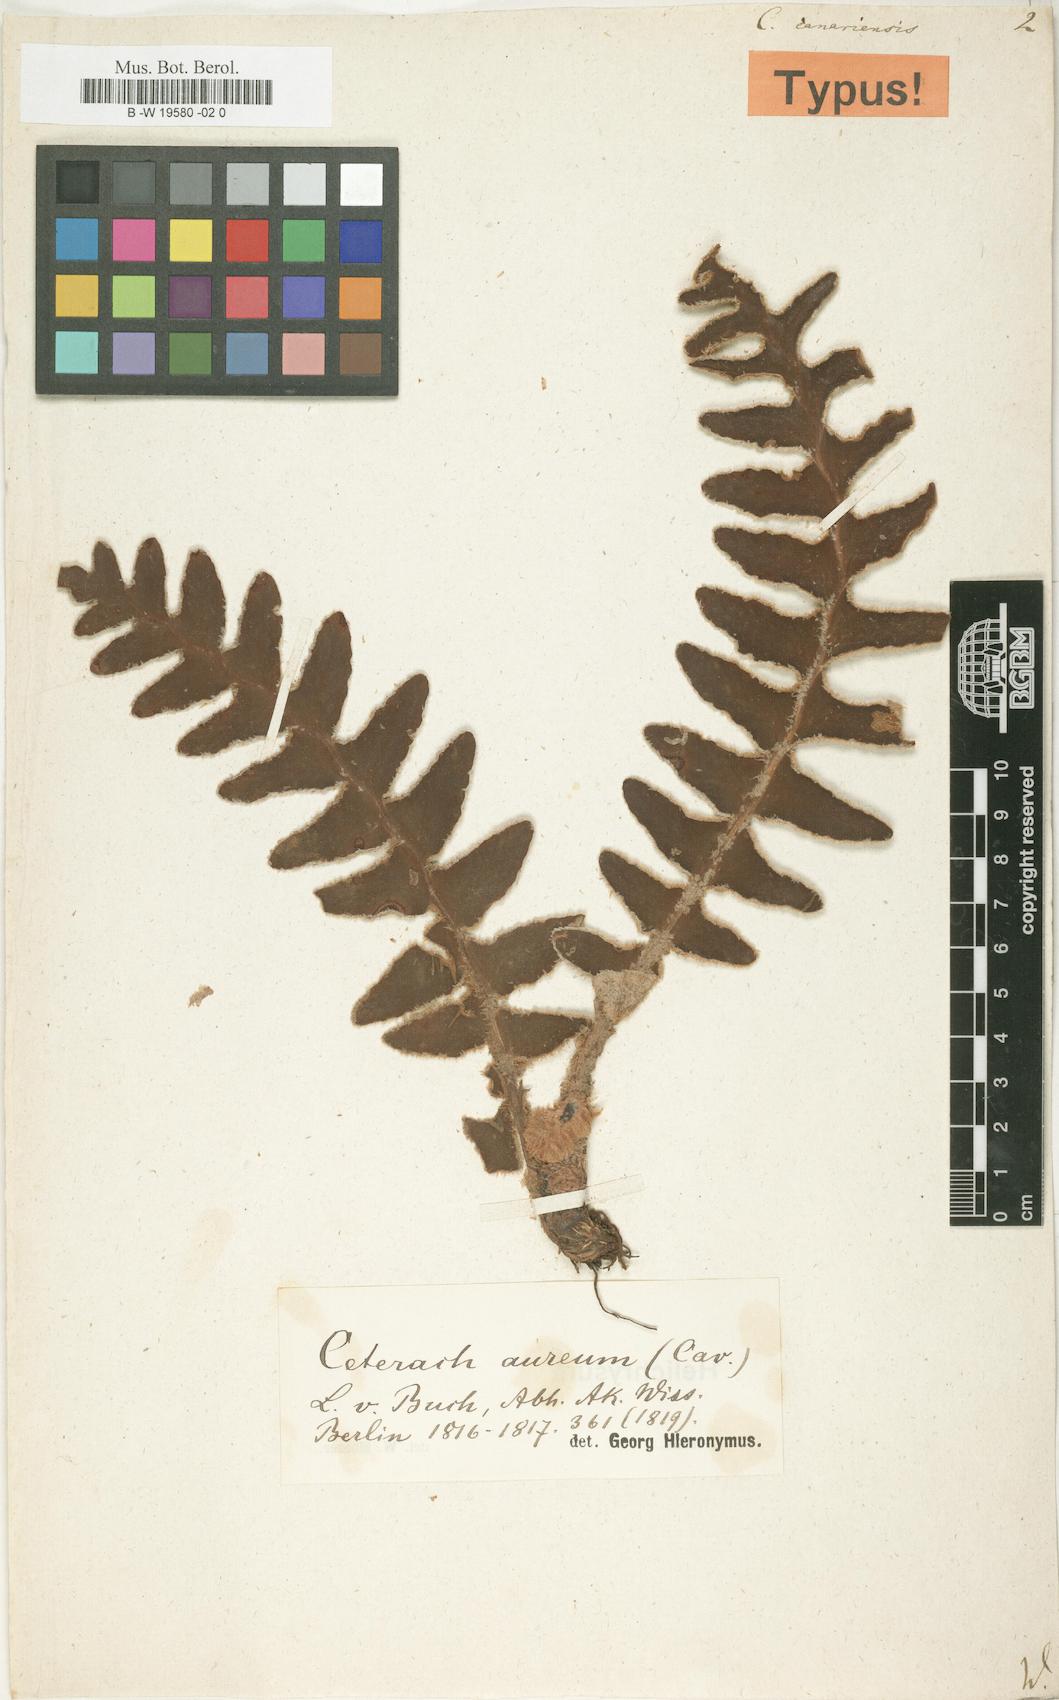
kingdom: Plantae
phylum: Tracheophyta
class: Polypodiopsida
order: Polypodiales
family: Aspleniaceae
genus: Asplenium
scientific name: Asplenium canariense
